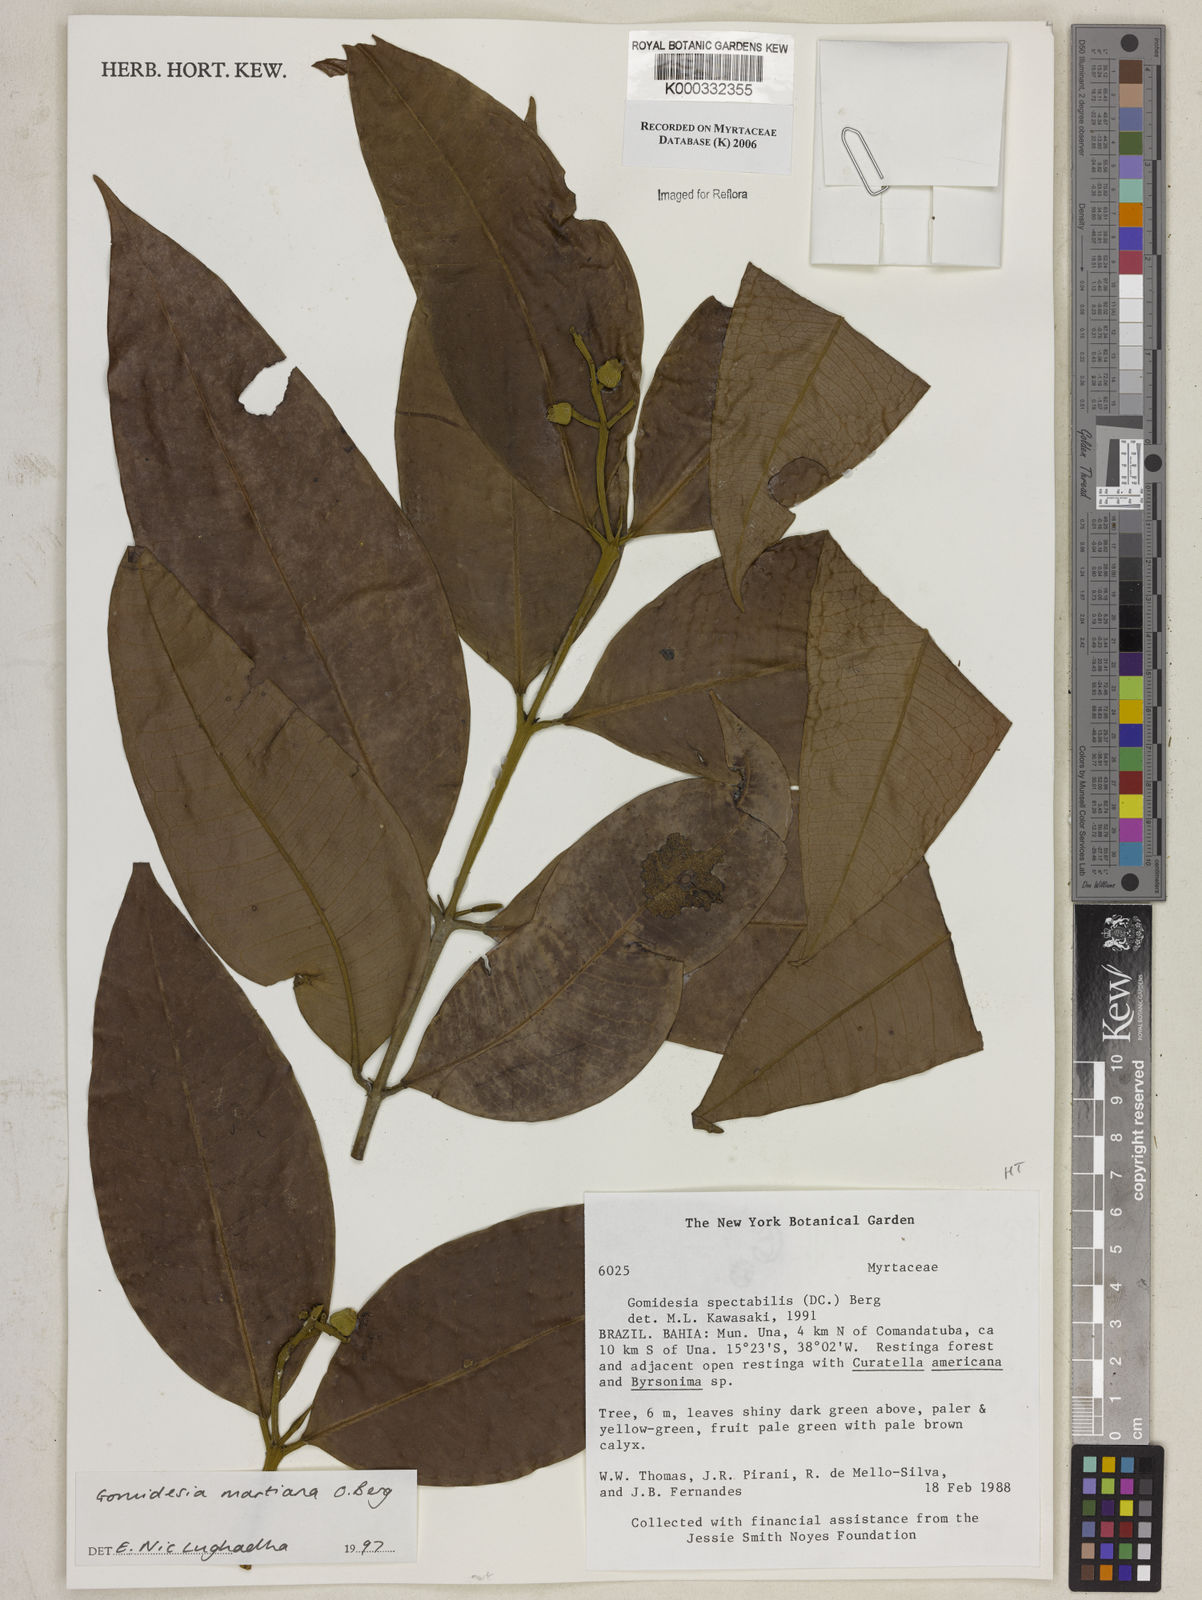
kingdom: Plantae
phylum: Tracheophyta
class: Magnoliopsida
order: Myrtales
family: Myrtaceae
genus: Myrcia
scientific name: Myrcia vittoriana
